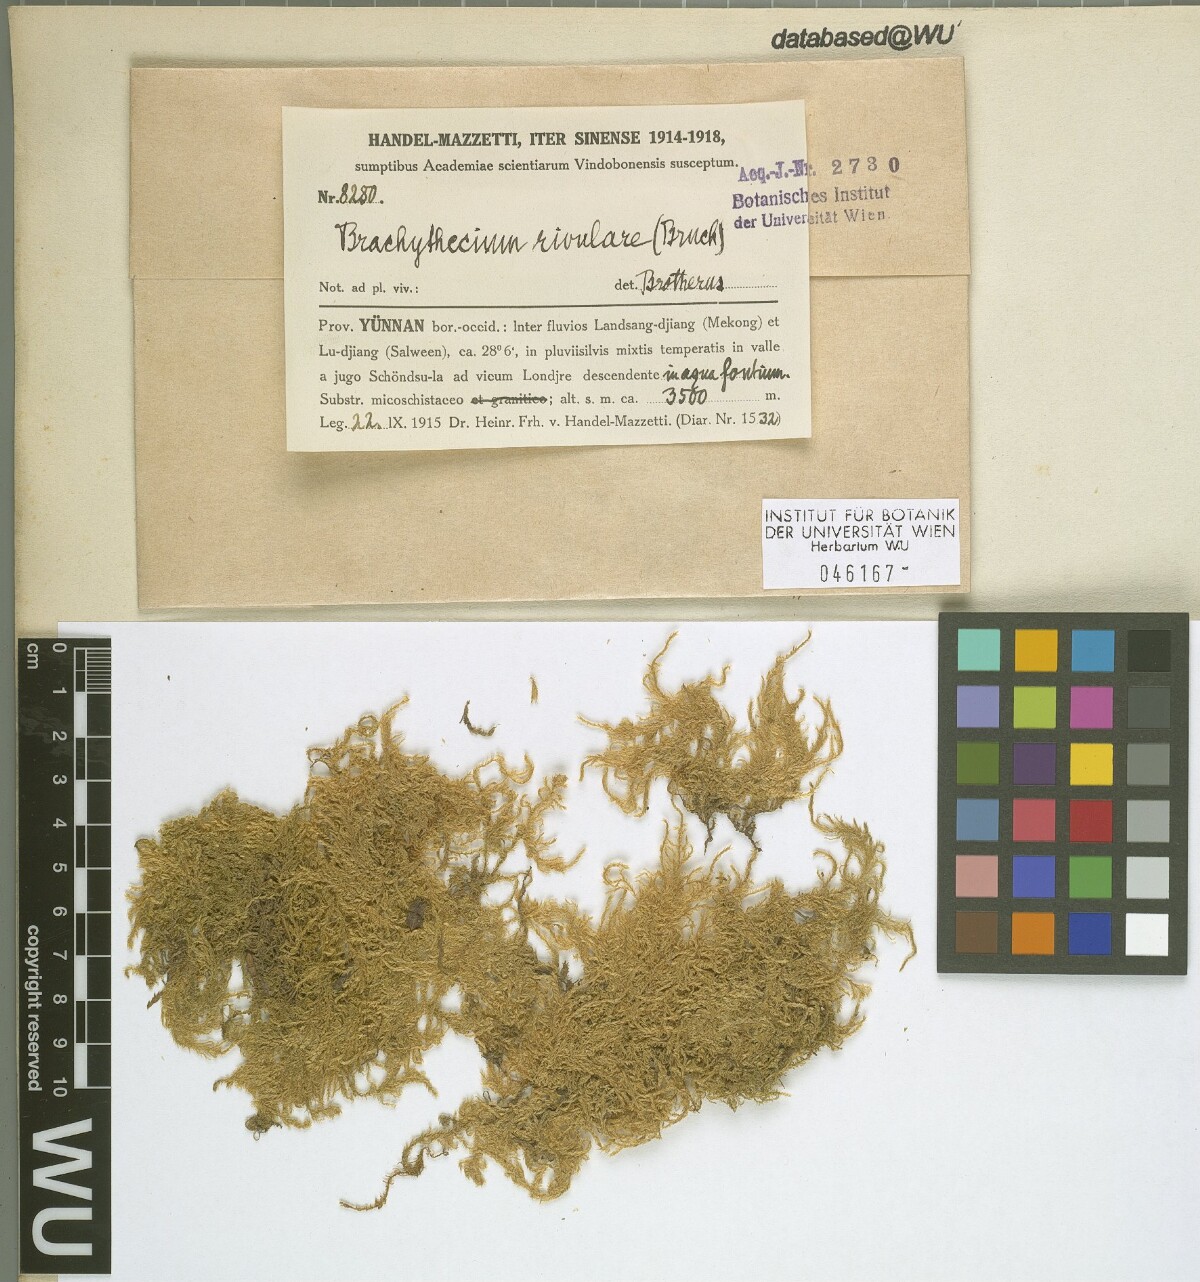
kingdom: Plantae
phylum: Bryophyta
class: Bryopsida
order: Hypnales
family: Brachytheciaceae
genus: Brachythecium
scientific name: Brachythecium rivulare
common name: River ragged moss
